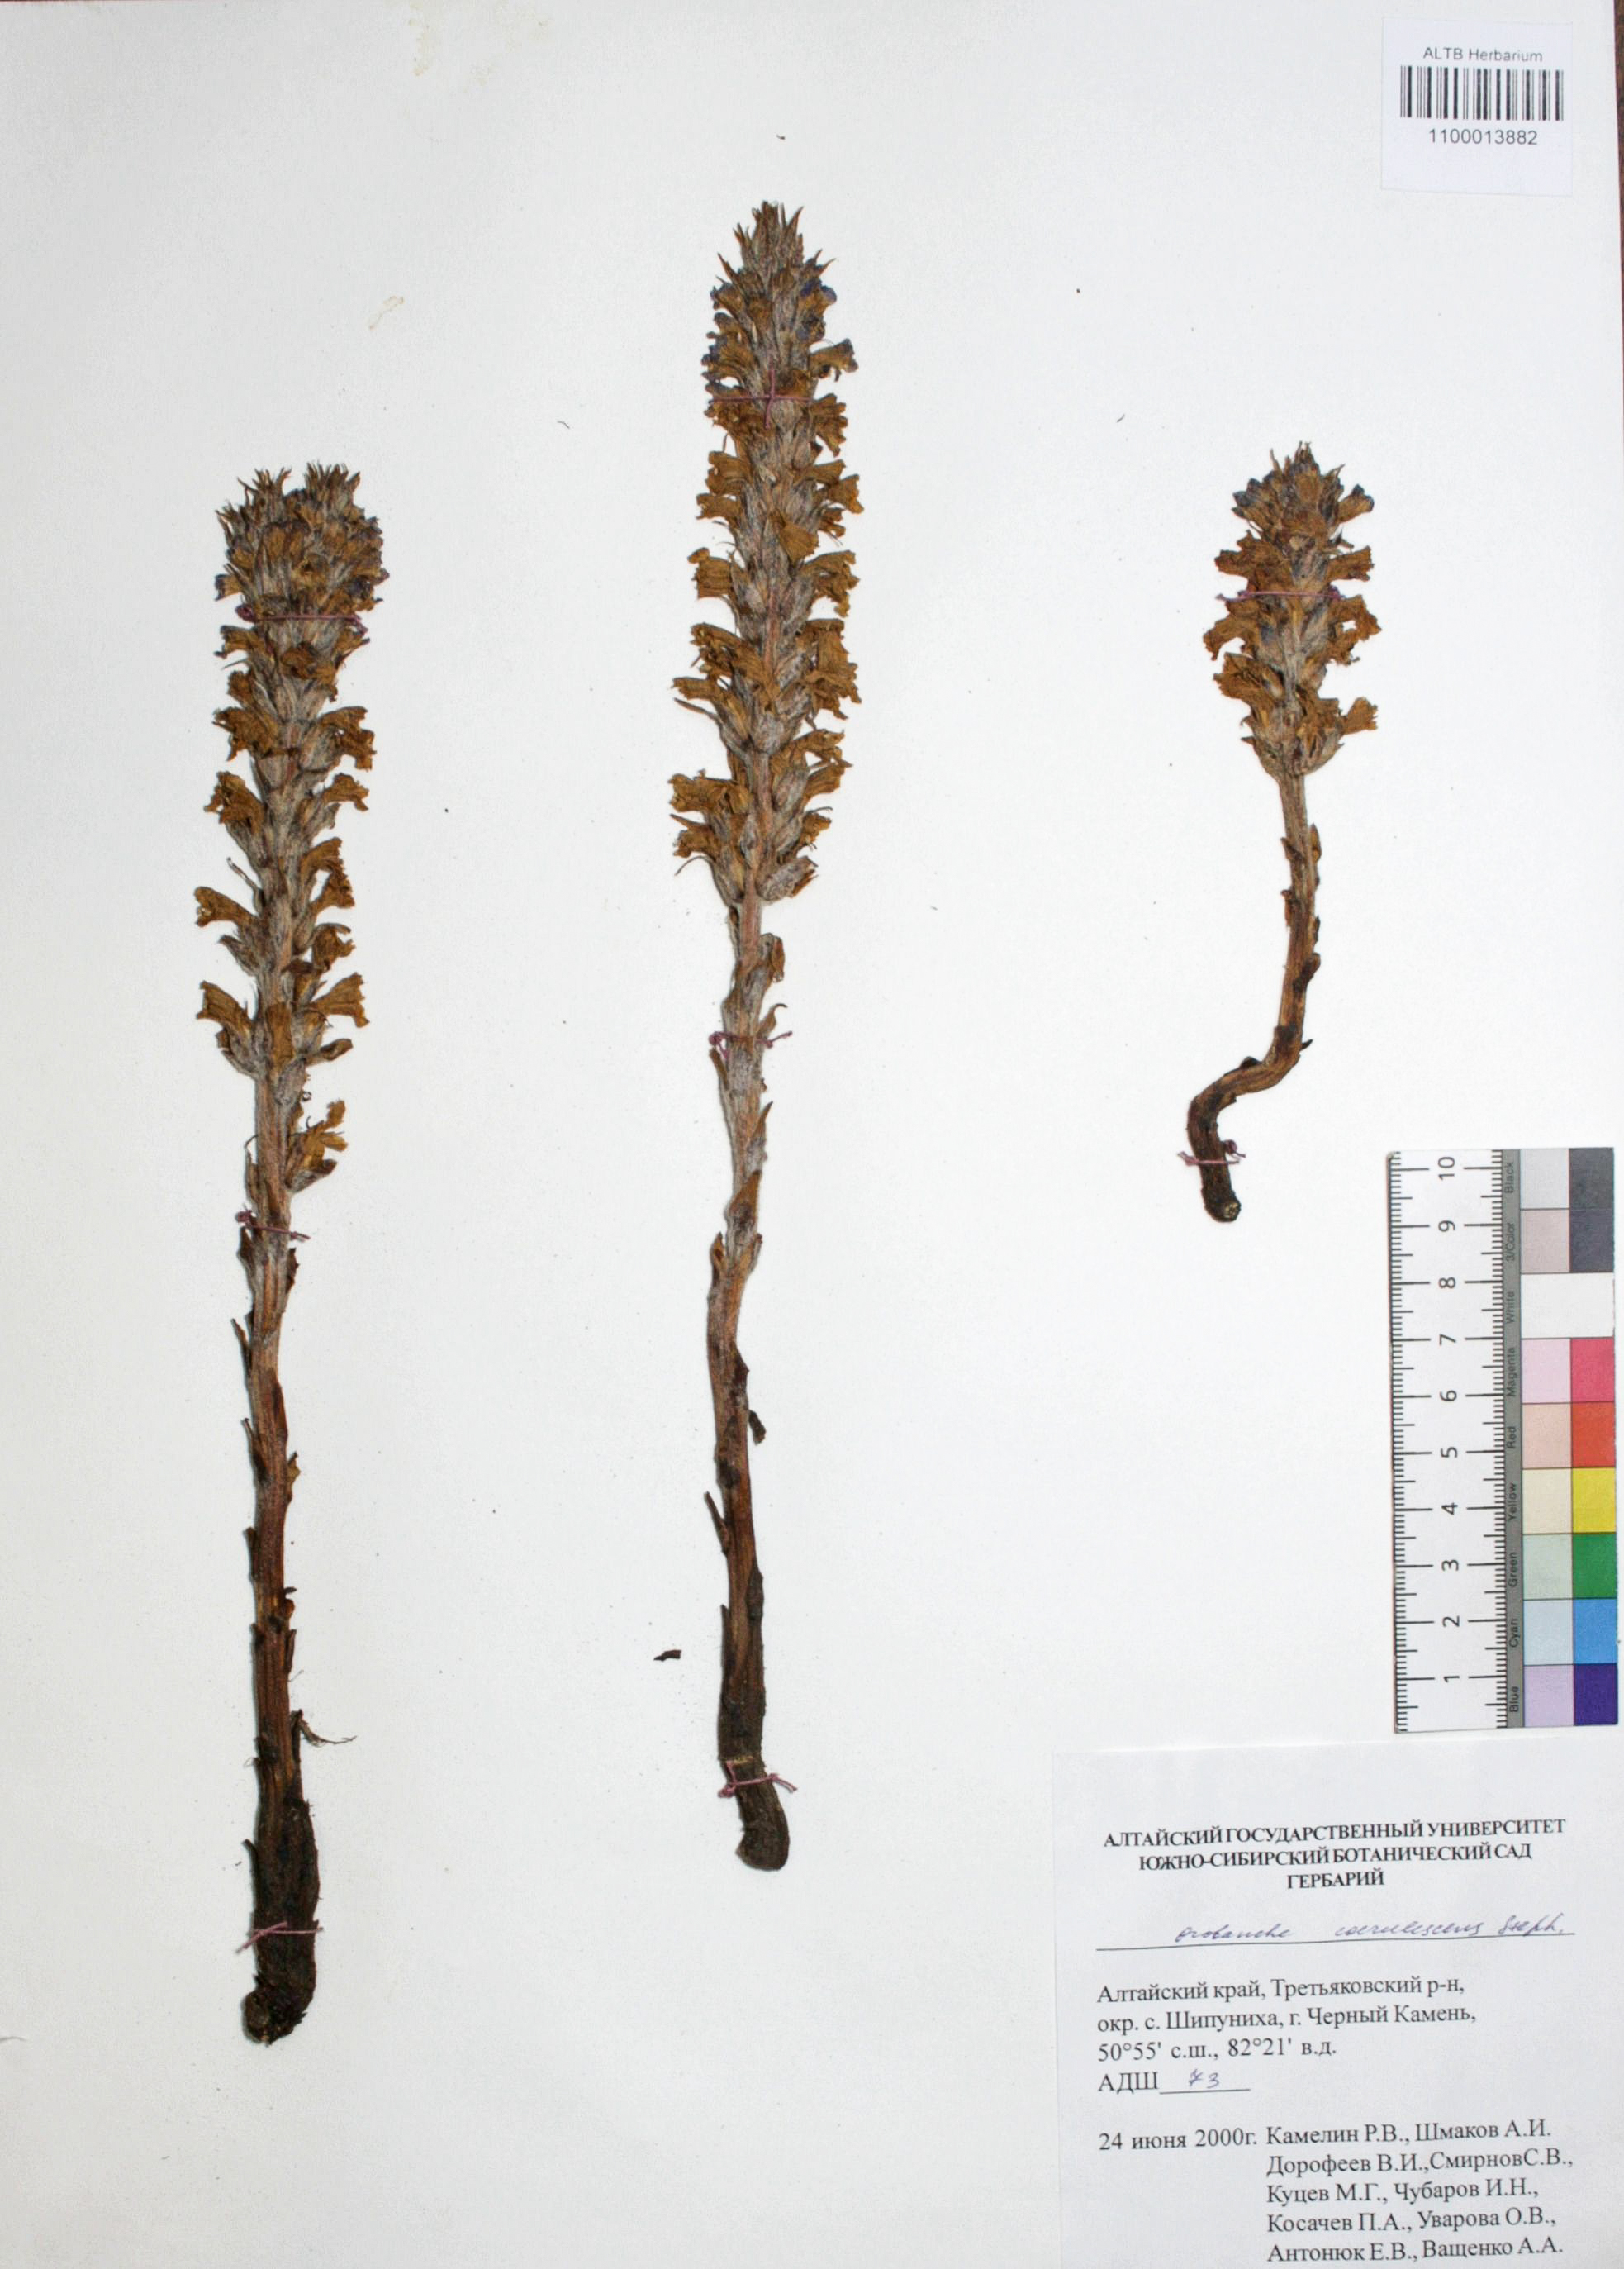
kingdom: Plantae
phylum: Tracheophyta
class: Magnoliopsida
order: Lamiales
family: Orobanchaceae
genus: Orobanche
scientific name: Orobanche coerulescens
